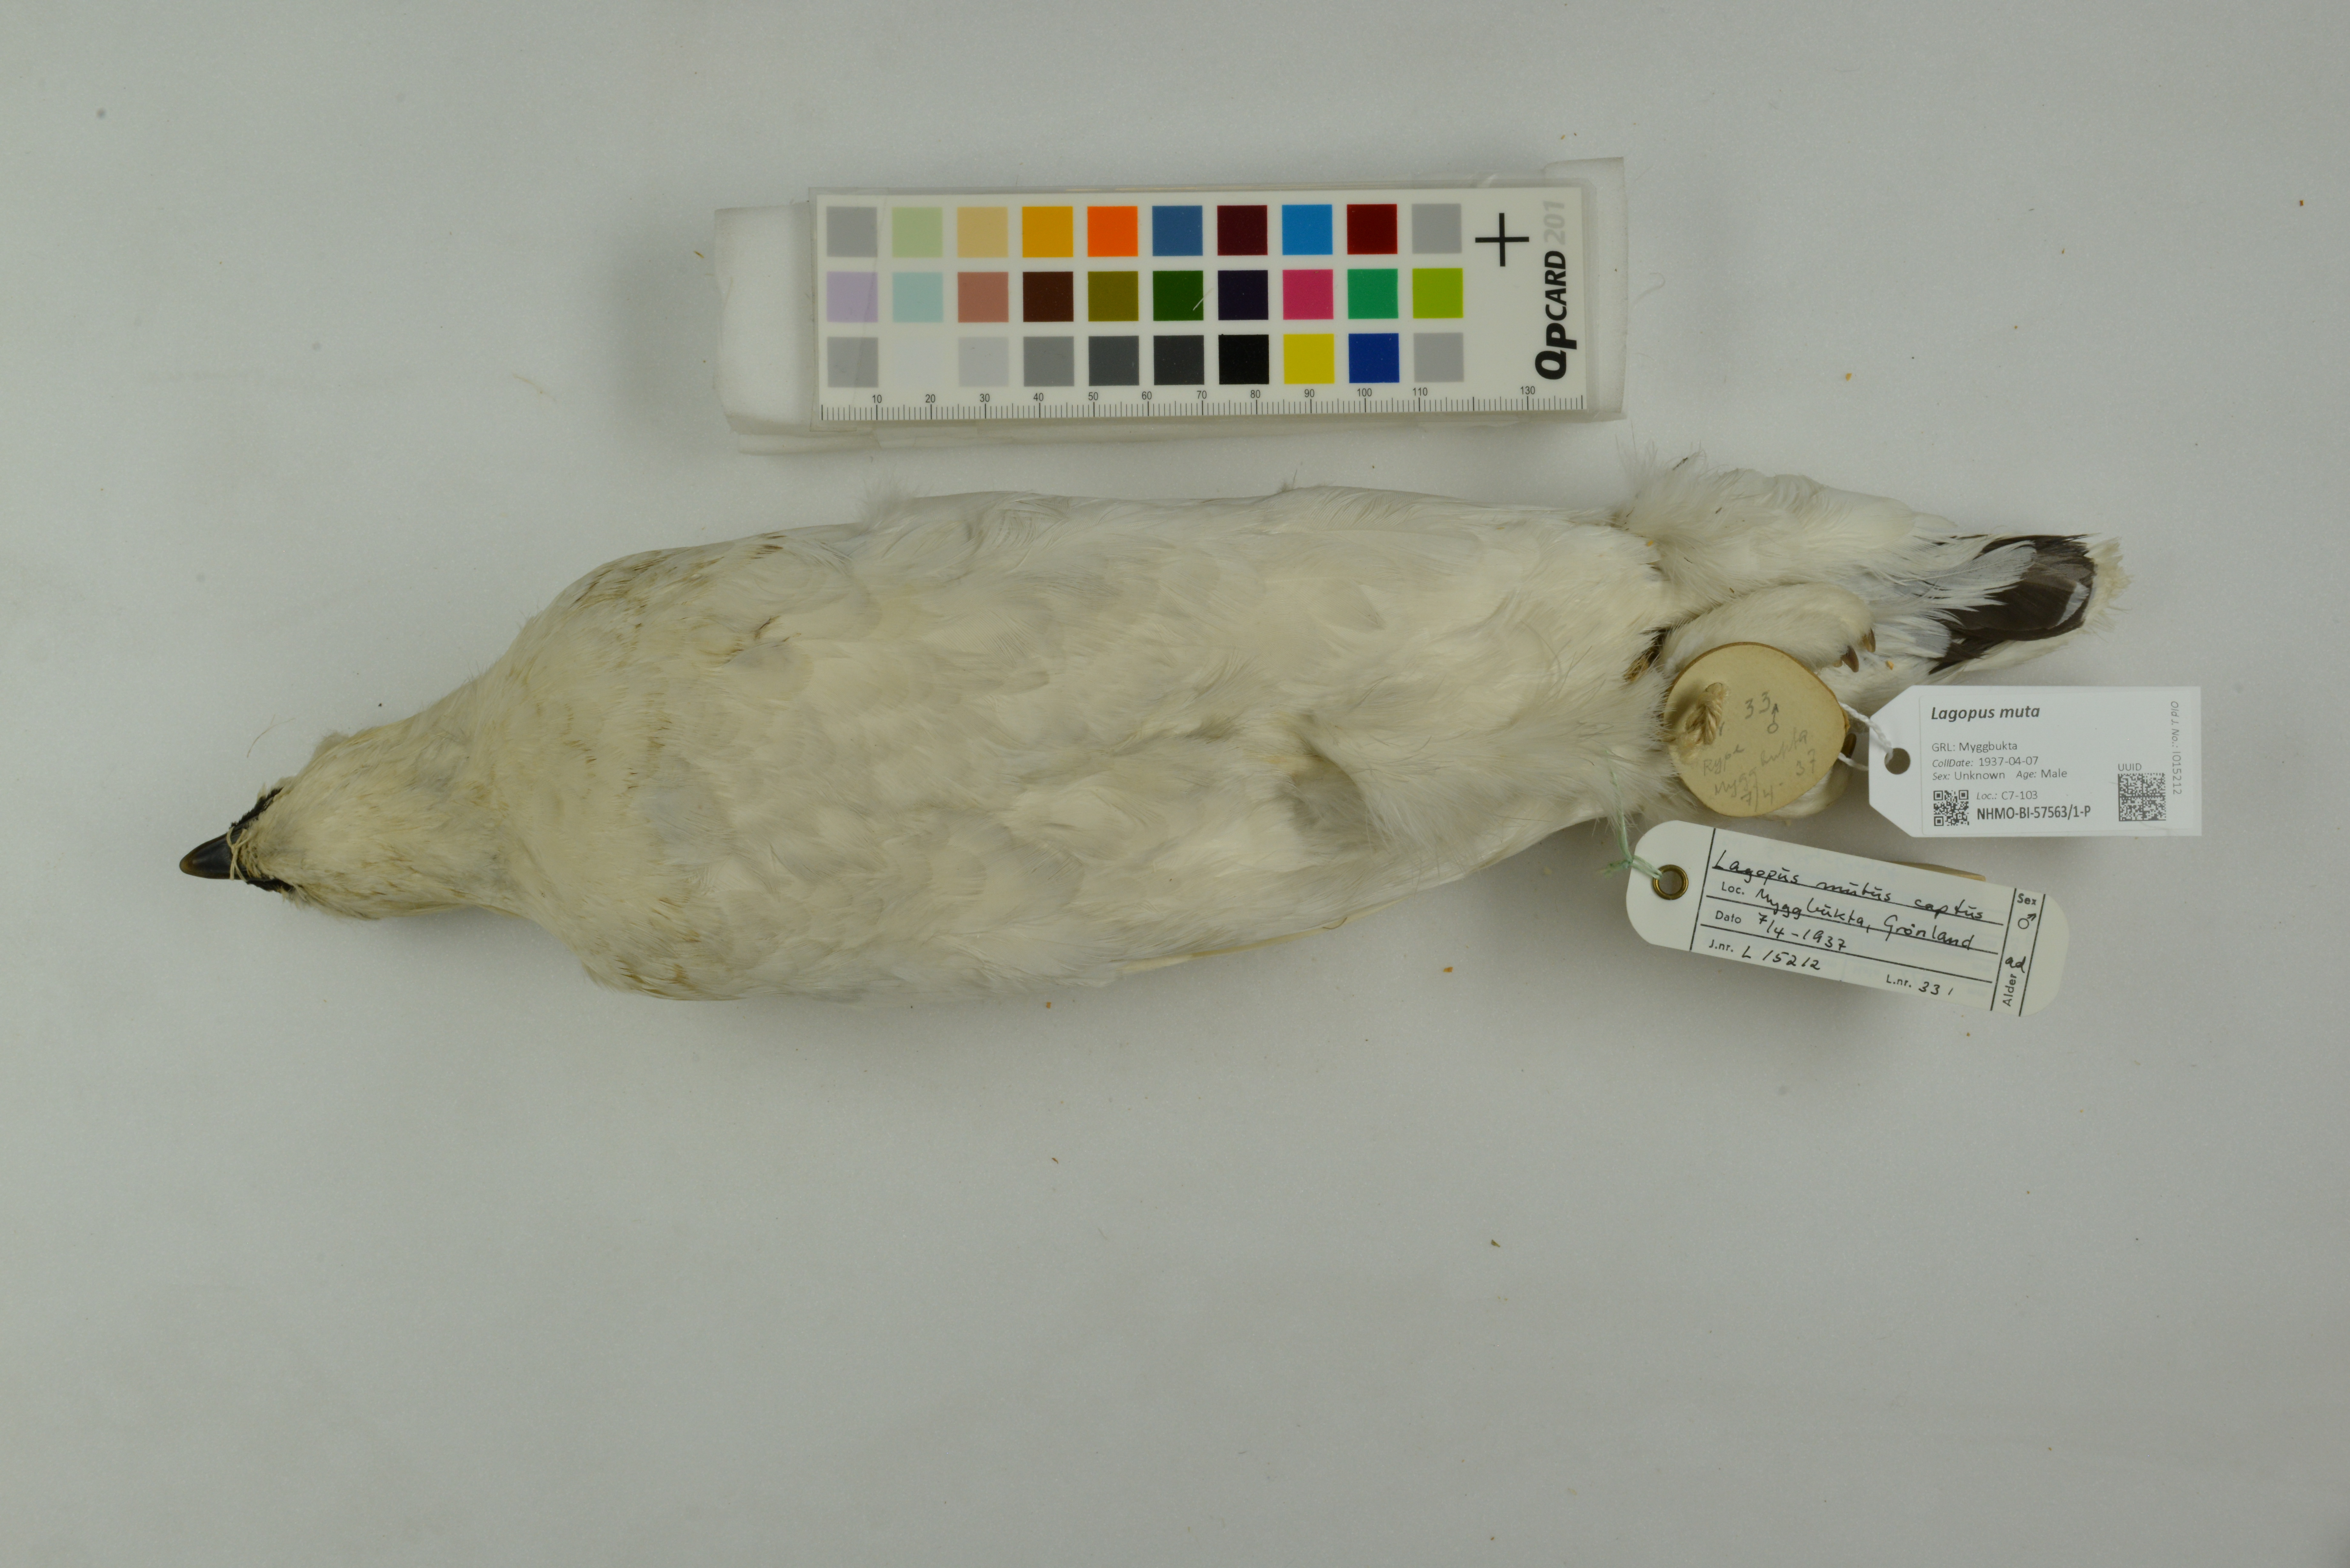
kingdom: Animalia
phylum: Chordata
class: Aves
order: Galliformes
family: Phasianidae
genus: Lagopus
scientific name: Lagopus muta
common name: Rock ptarmigan
